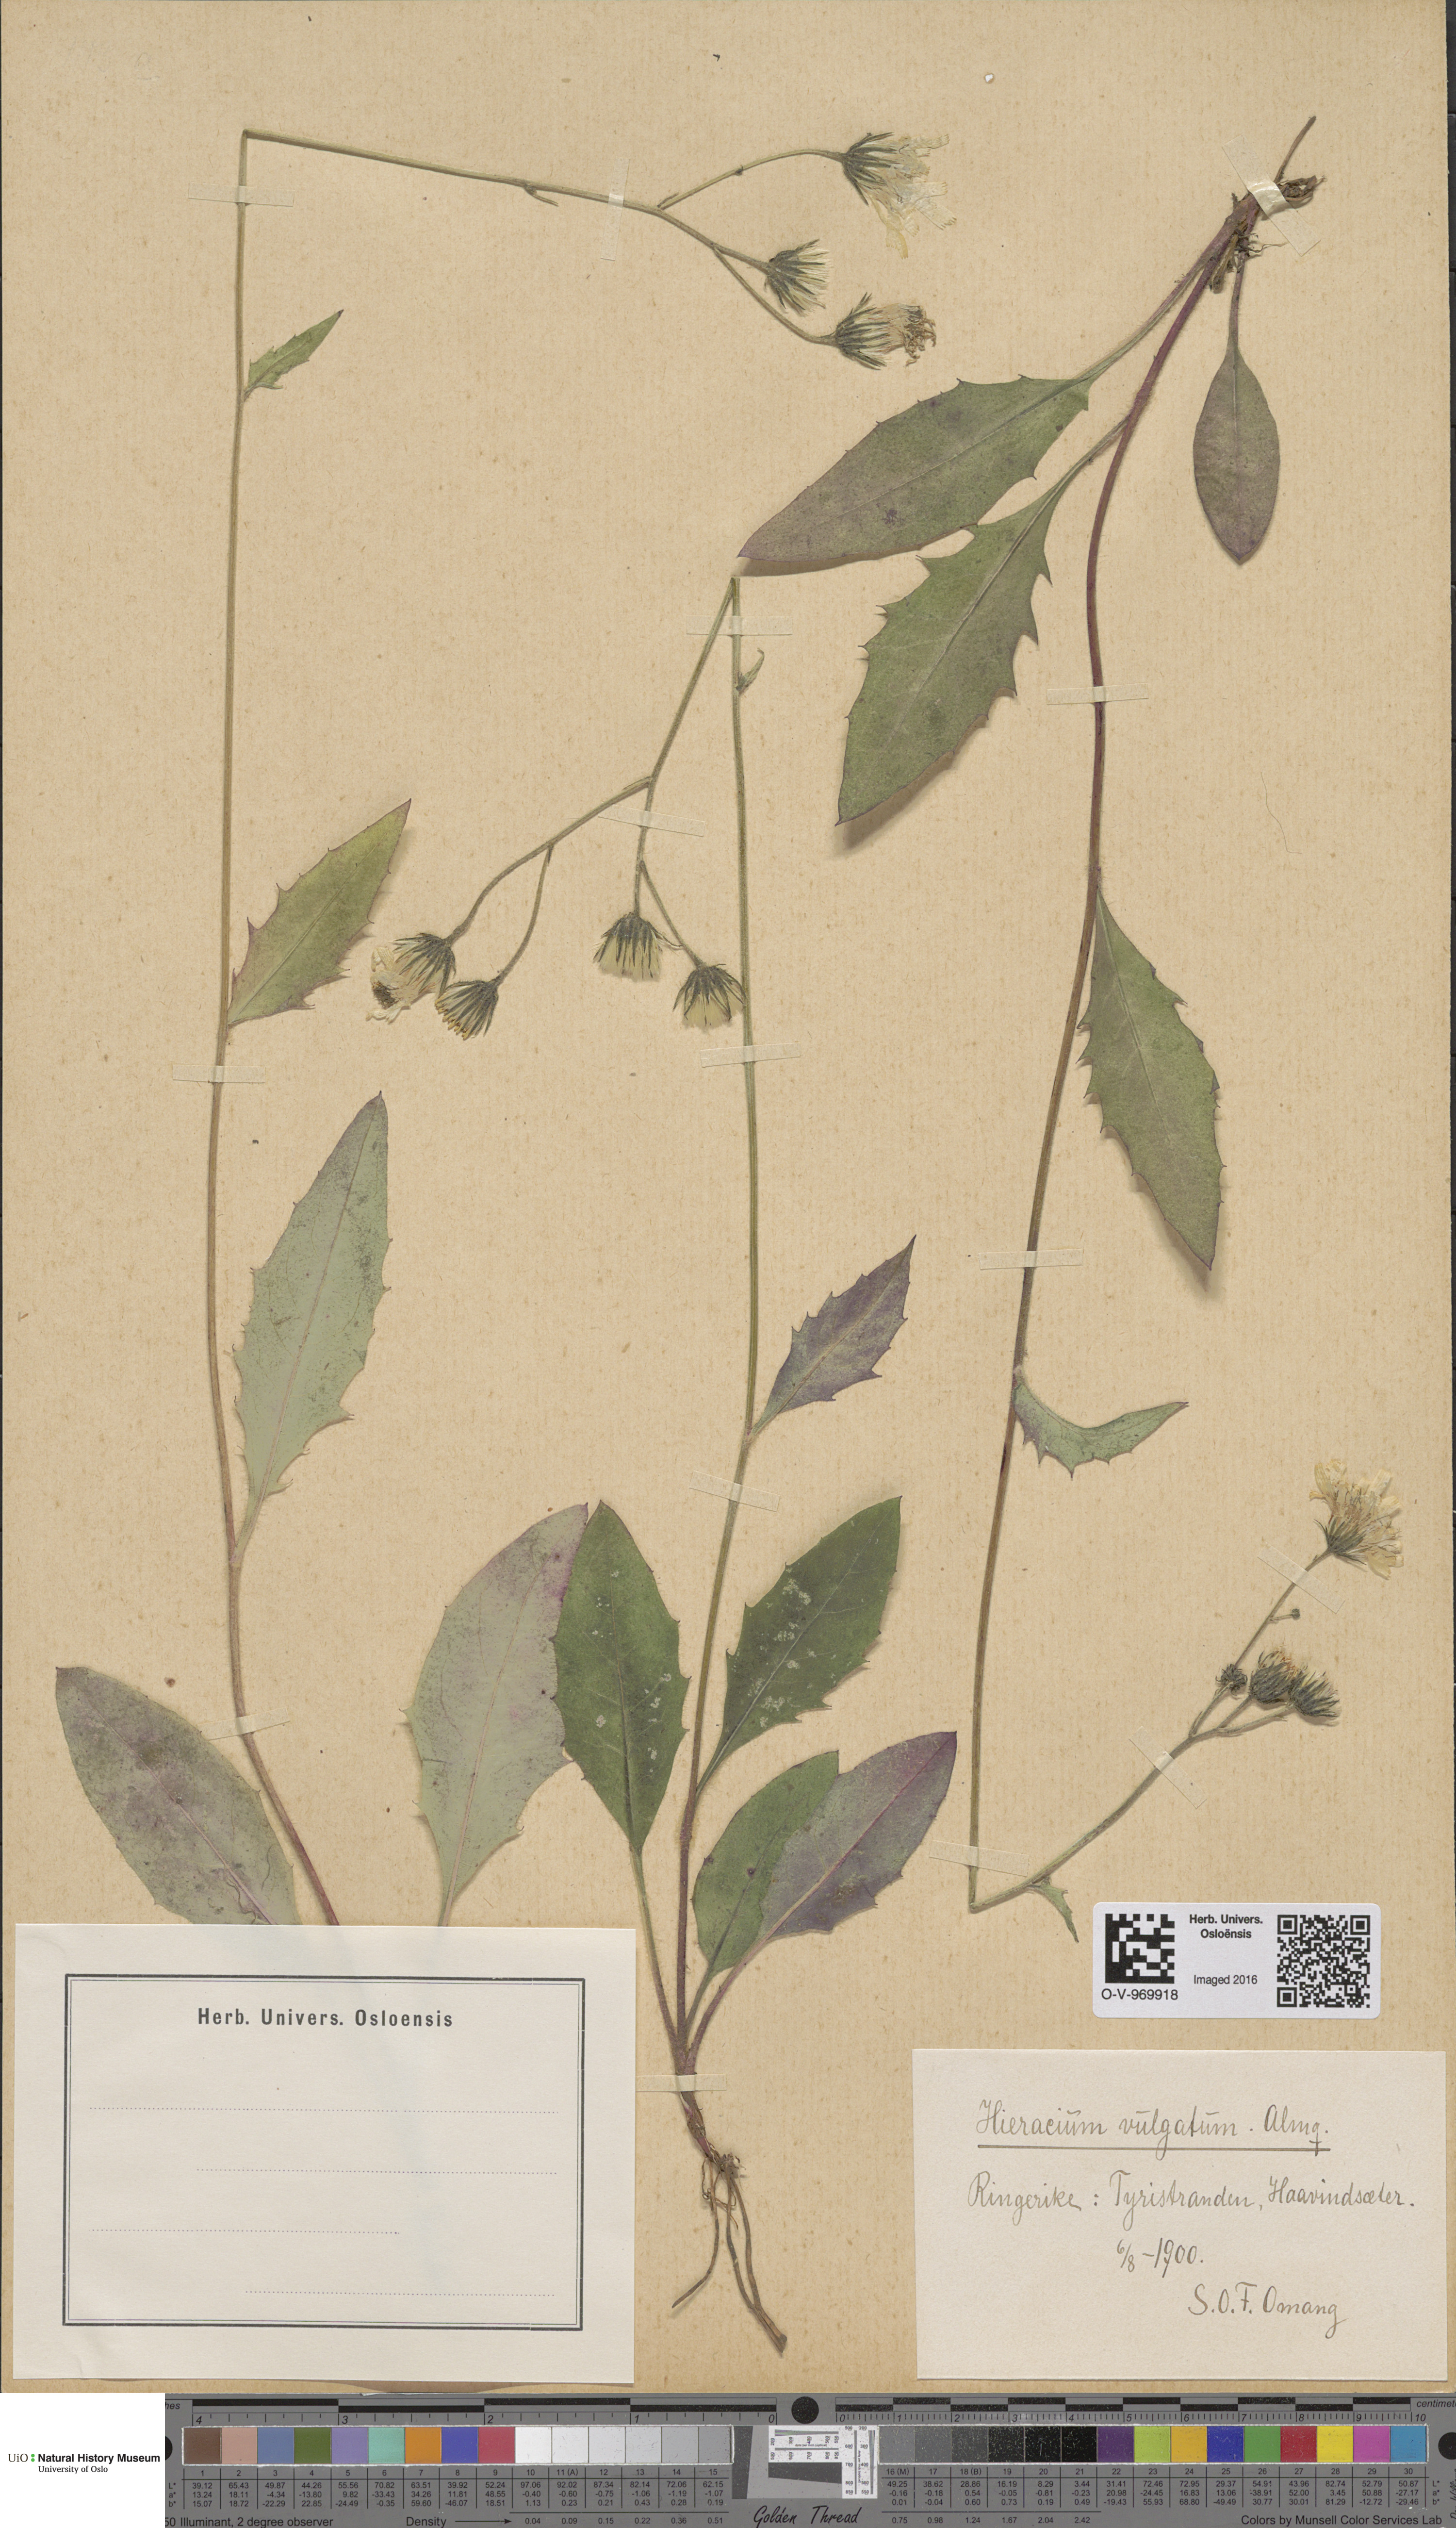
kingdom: Plantae
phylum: Tracheophyta
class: Magnoliopsida
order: Asterales
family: Asteraceae
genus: Hieracium
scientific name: Hieracium vulgatum
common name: Common hawkweed
